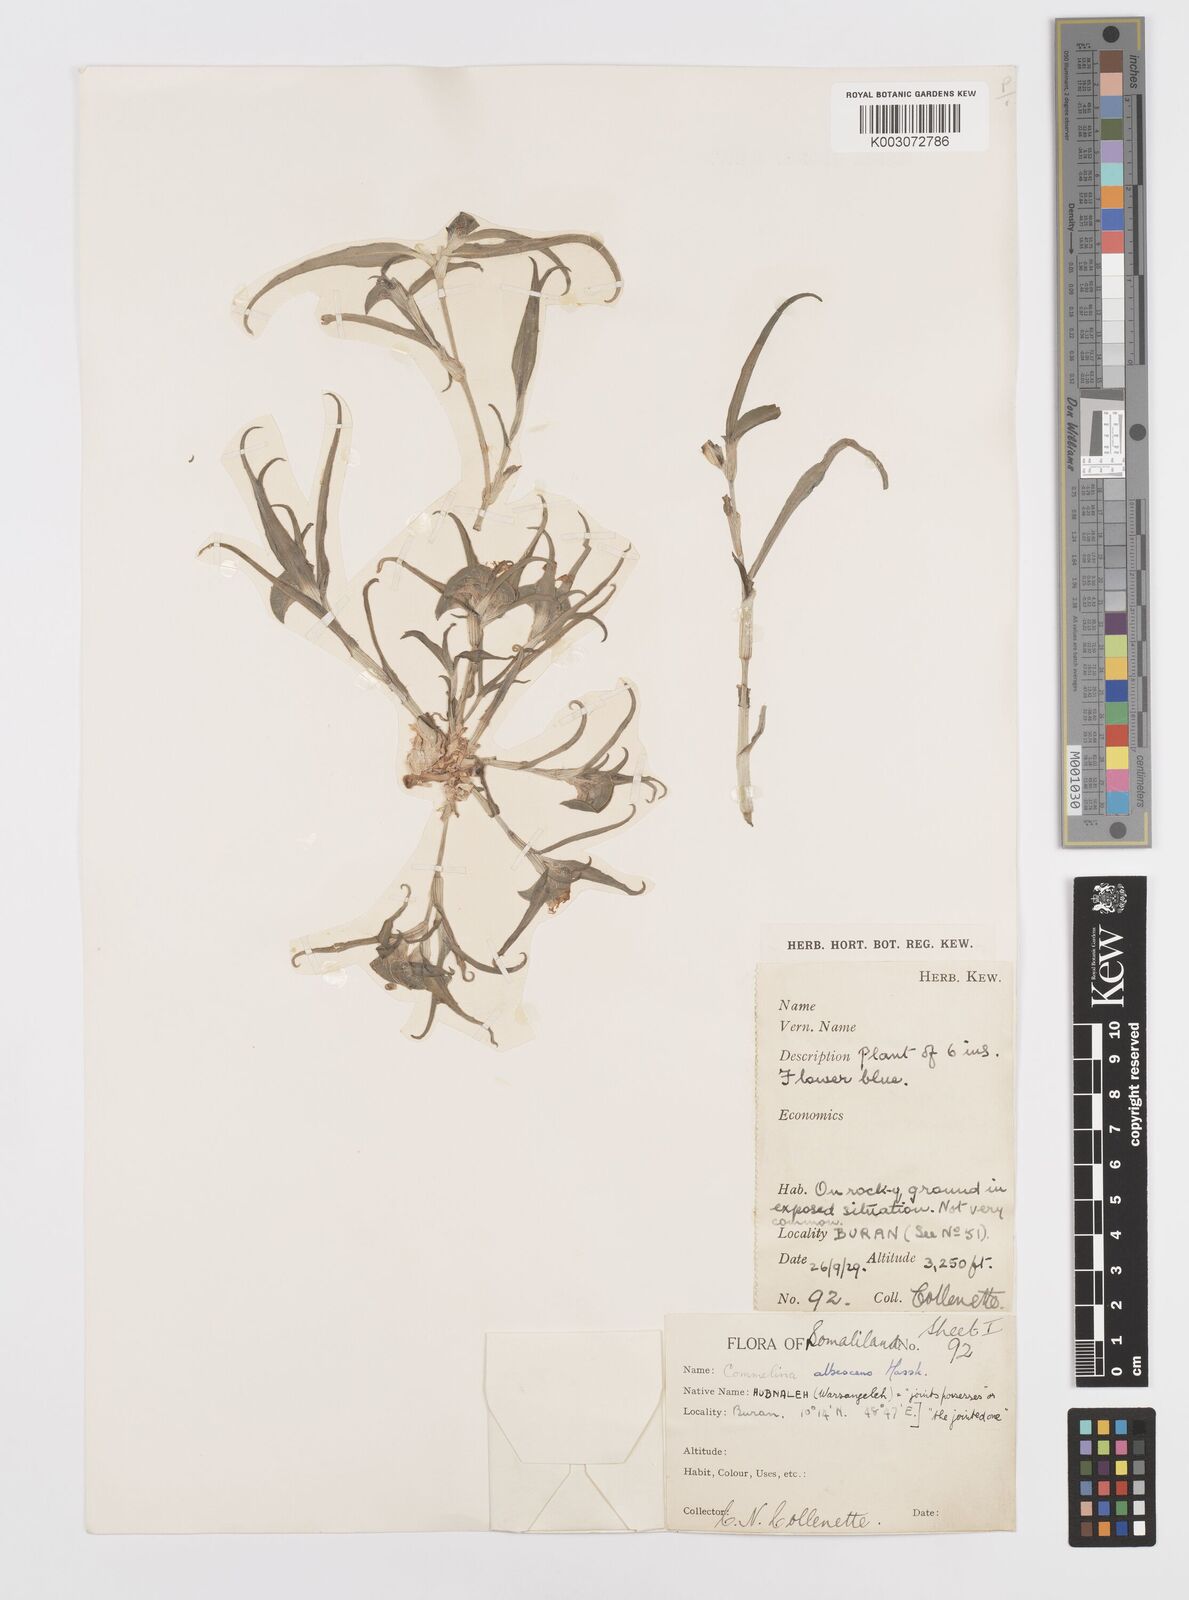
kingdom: Plantae
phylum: Tracheophyta
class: Liliopsida
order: Commelinales
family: Commelinaceae
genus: Commelina
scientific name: Commelina albescens
